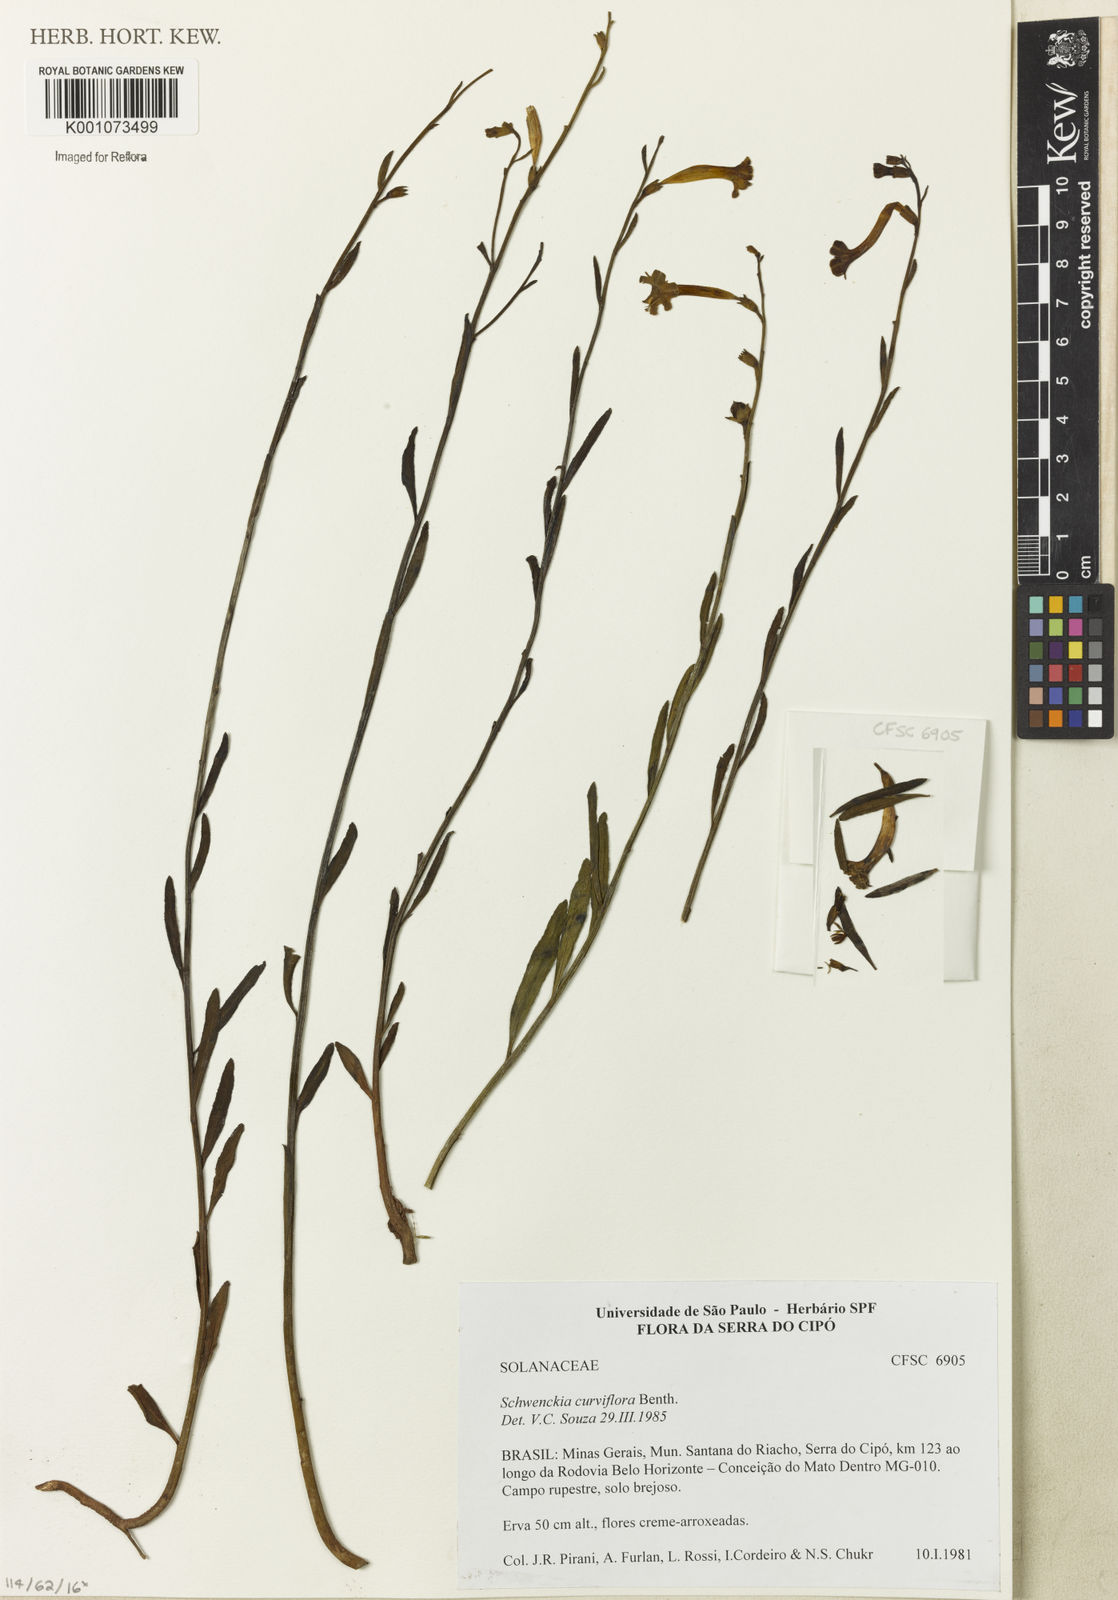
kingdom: Plantae
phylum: Tracheophyta
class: Magnoliopsida
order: Solanales
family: Solanaceae
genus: Schwenckia
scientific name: Schwenckia
